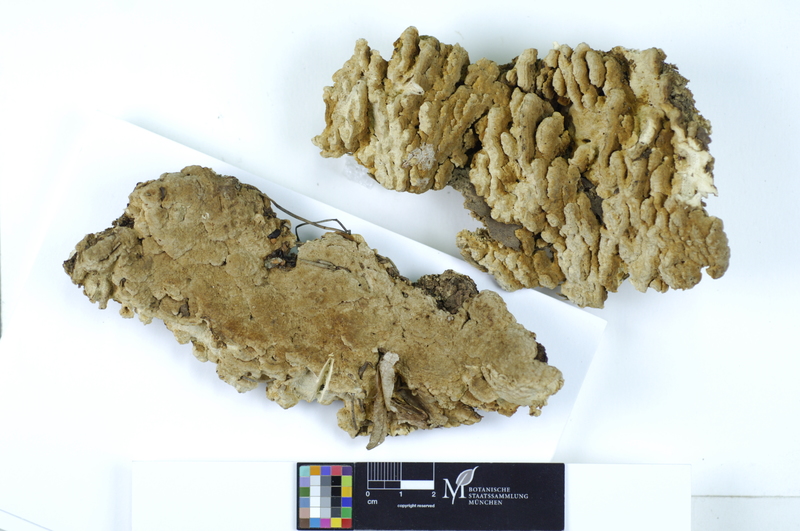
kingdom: Plantae
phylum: Tracheophyta
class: Pinopsida
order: Pinales
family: Pinaceae
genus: Pinus
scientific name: Pinus
